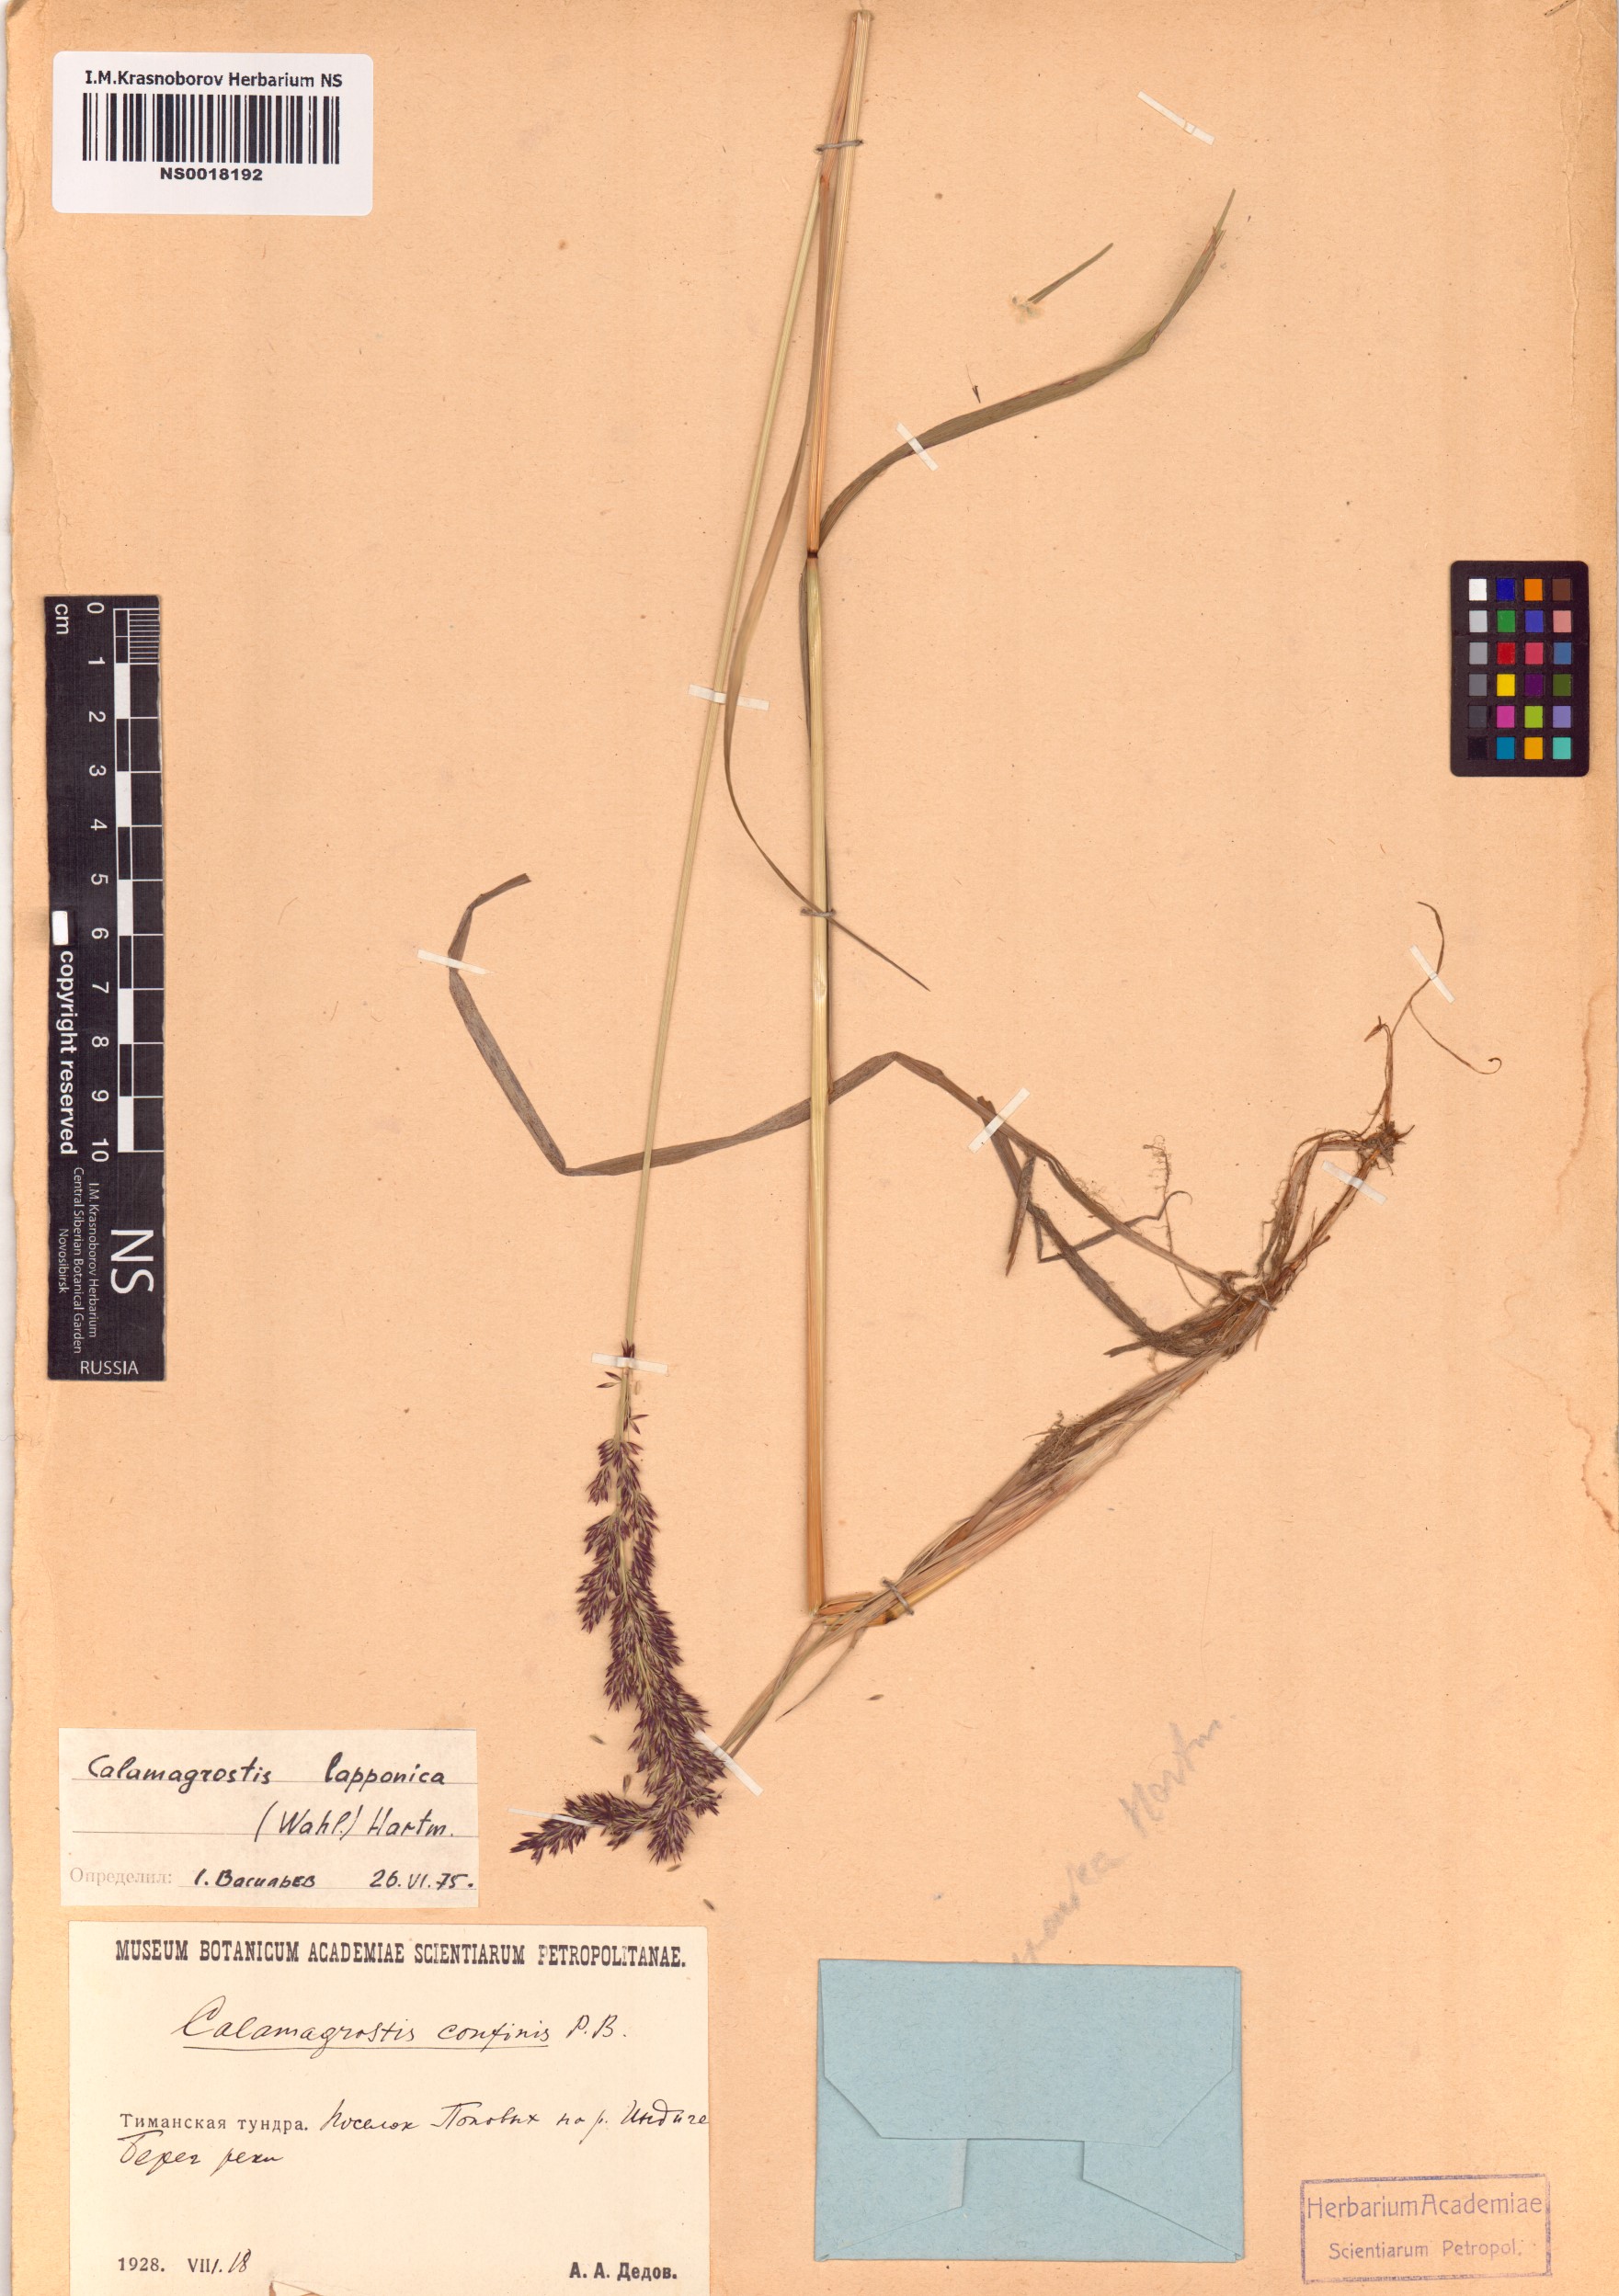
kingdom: Plantae
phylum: Tracheophyta
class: Liliopsida
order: Poales
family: Poaceae
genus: Calamagrostis
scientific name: Calamagrostis lapponica
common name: Lapland reedgrass
